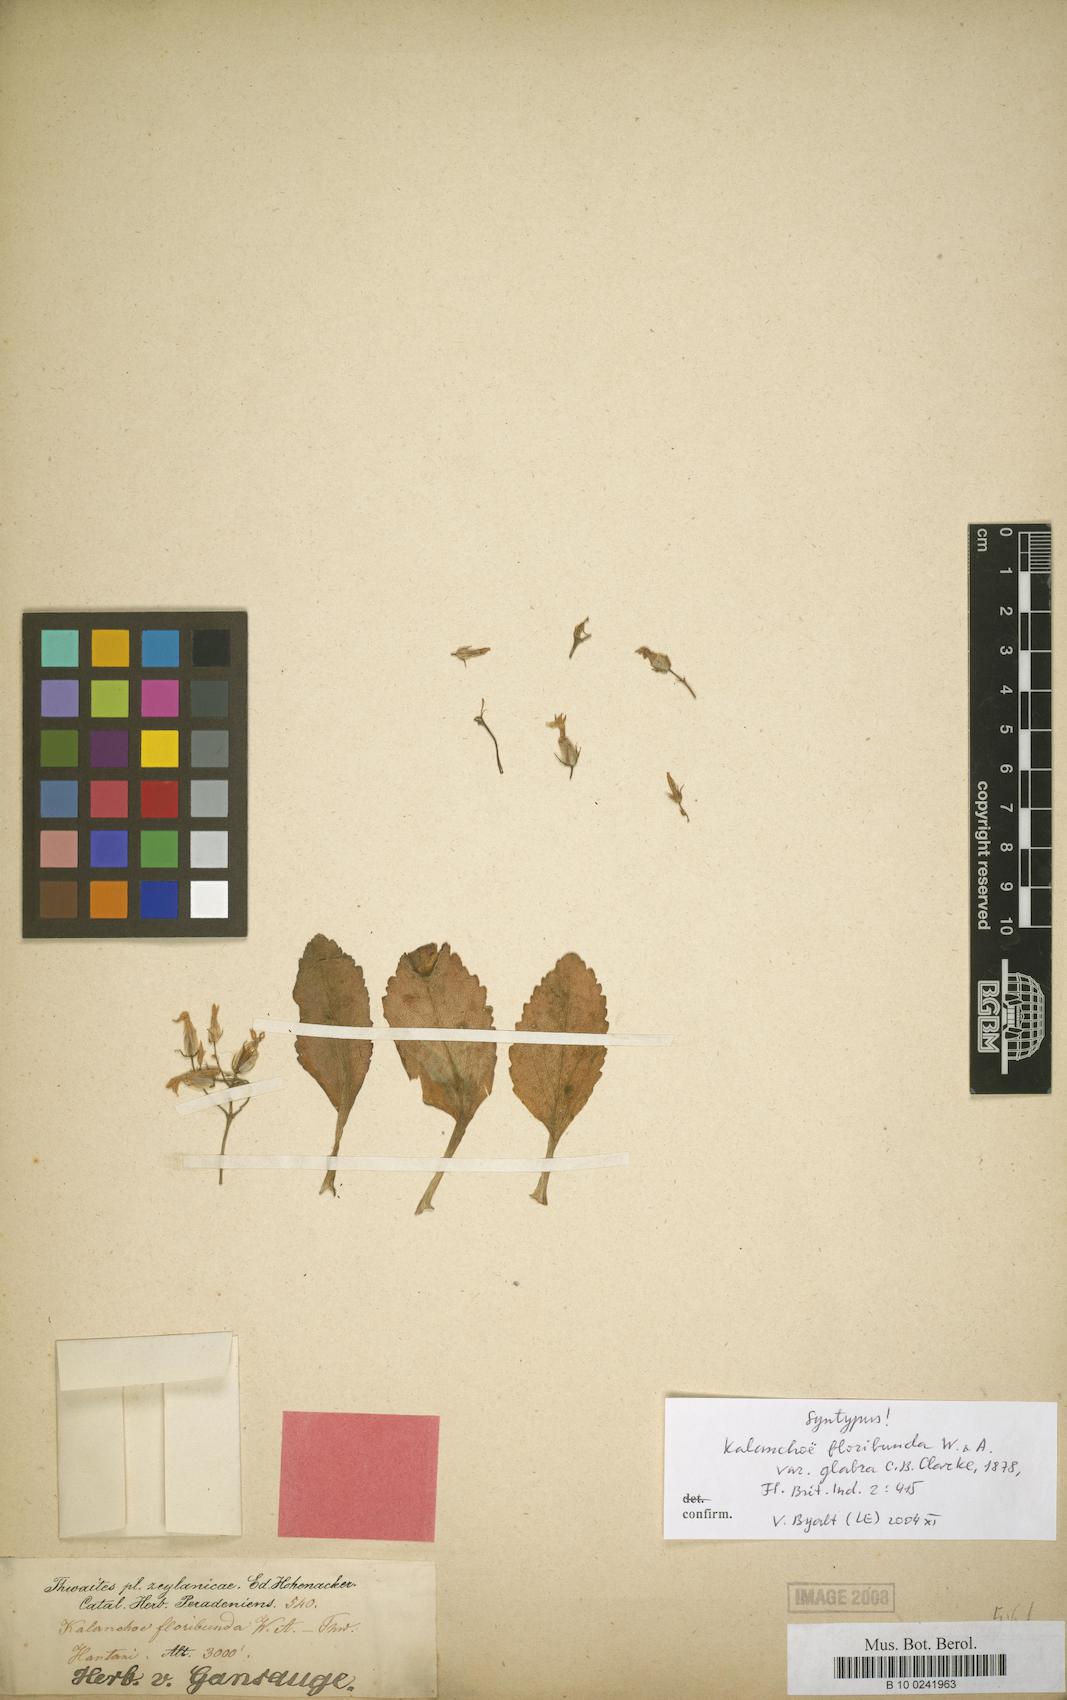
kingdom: Plantae
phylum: Tracheophyta
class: Magnoliopsida
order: Saxifragales
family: Crassulaceae
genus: Kalanchoe
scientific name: Kalanchoe floribunda
